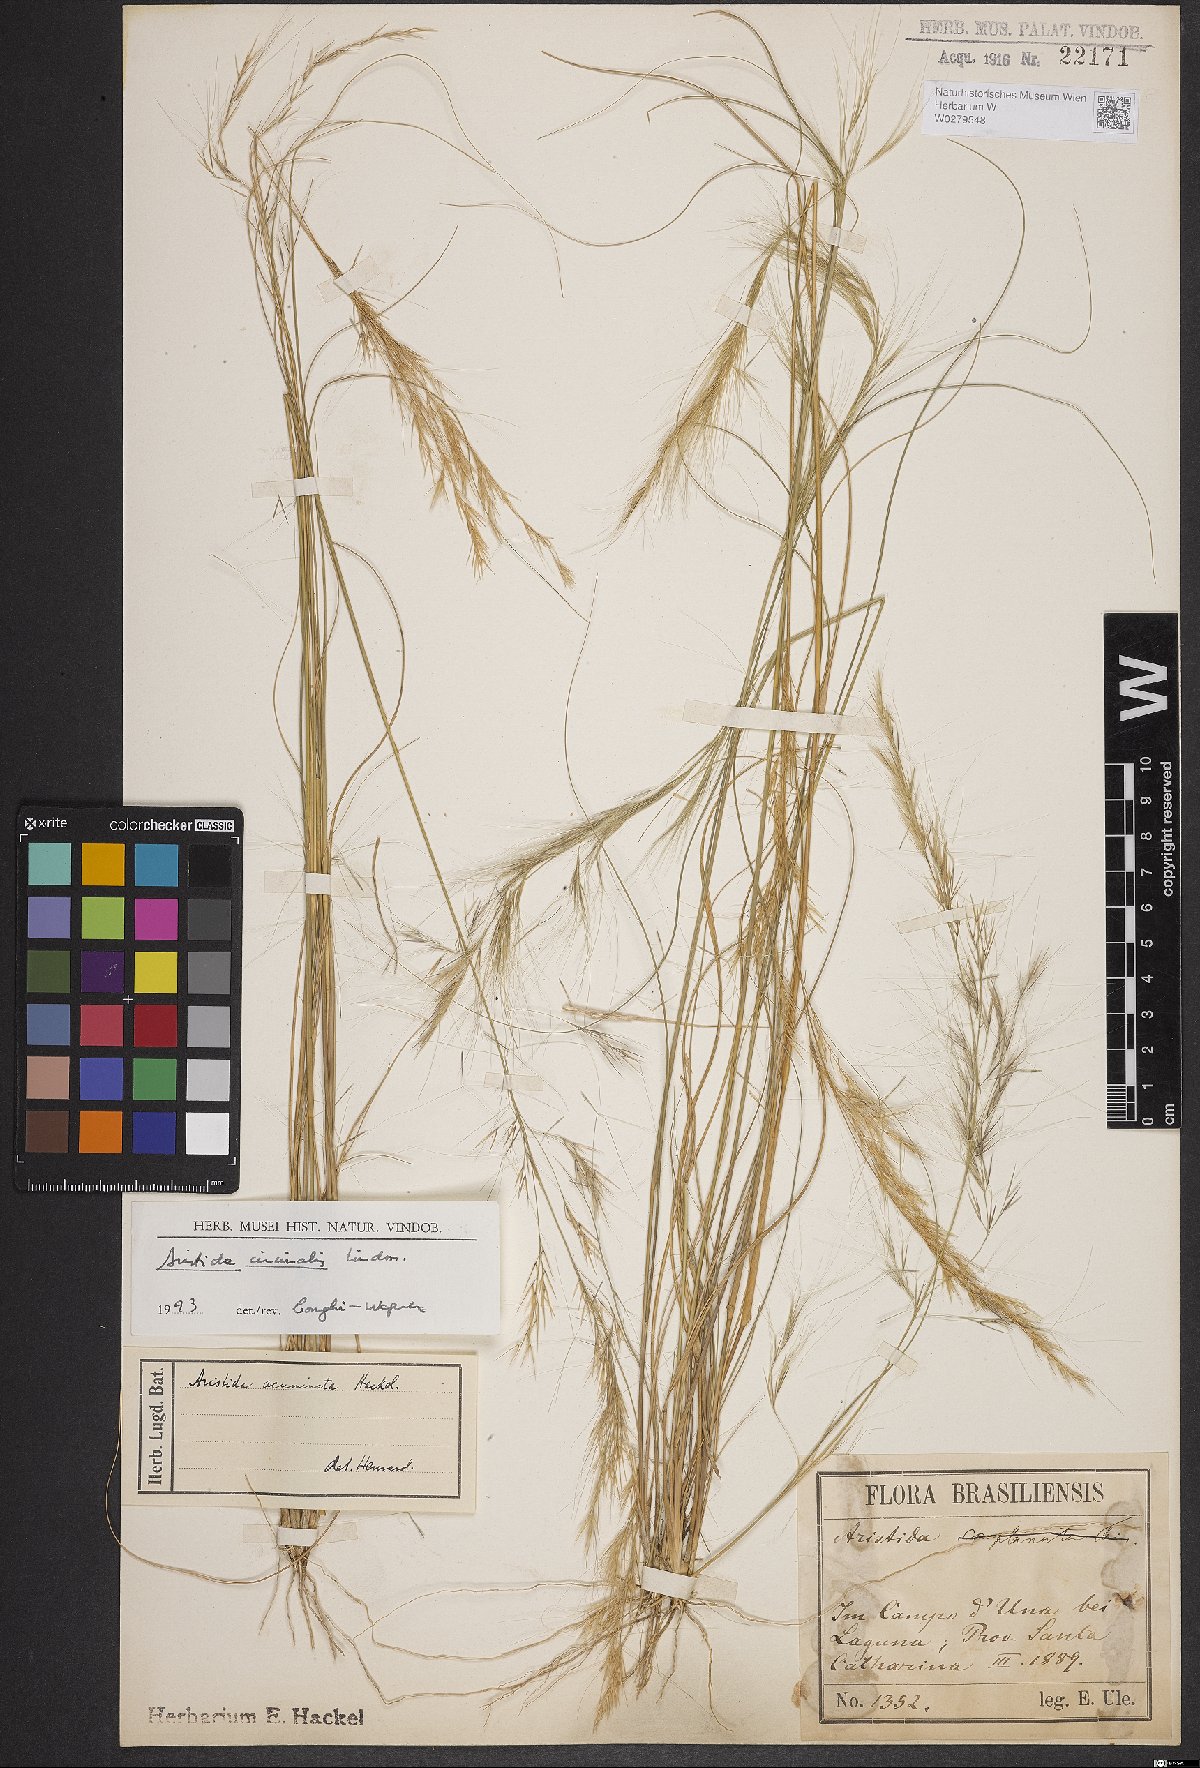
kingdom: Plantae
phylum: Tracheophyta
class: Liliopsida
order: Poales
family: Poaceae
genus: Aristida
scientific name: Aristida circinalis
